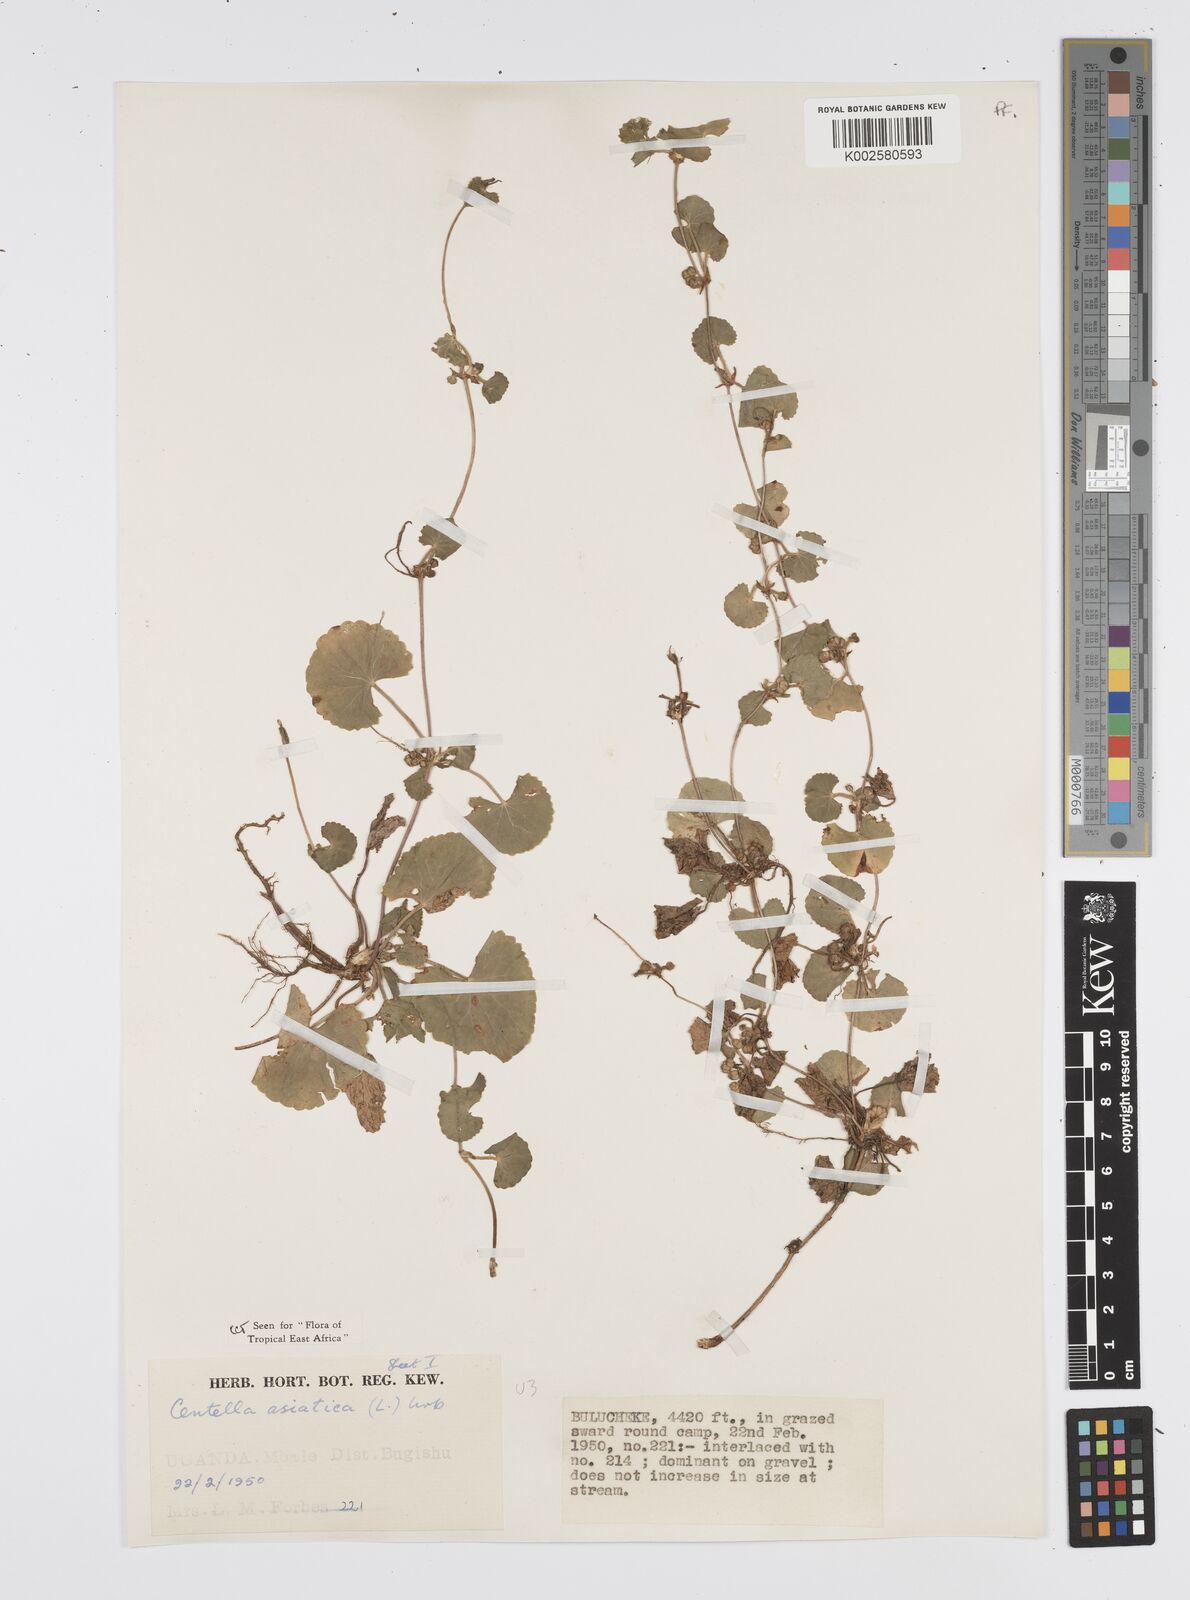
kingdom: Plantae
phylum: Tracheophyta
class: Magnoliopsida
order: Apiales
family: Apiaceae
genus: Centella
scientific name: Centella asiatica
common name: Spadeleaf
